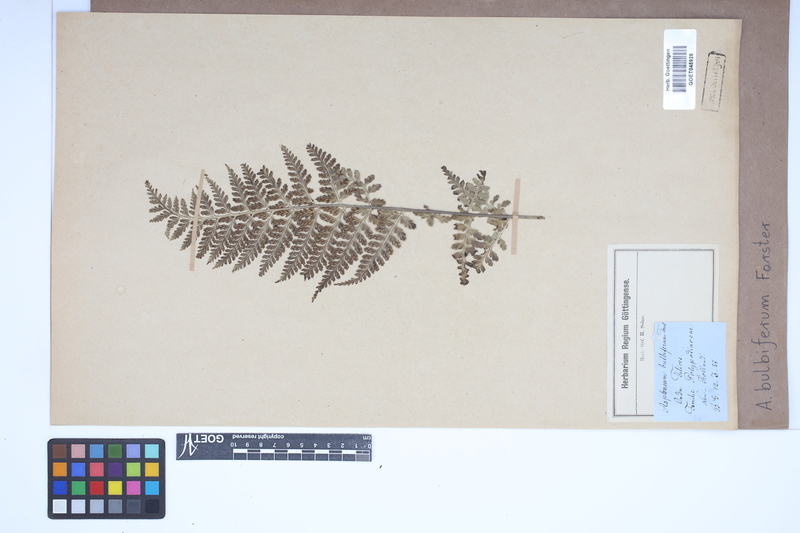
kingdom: Plantae
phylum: Tracheophyta
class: Polypodiopsida
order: Polypodiales
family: Aspleniaceae
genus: Asplenium
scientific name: Asplenium bulbiferum
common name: Mother fern
